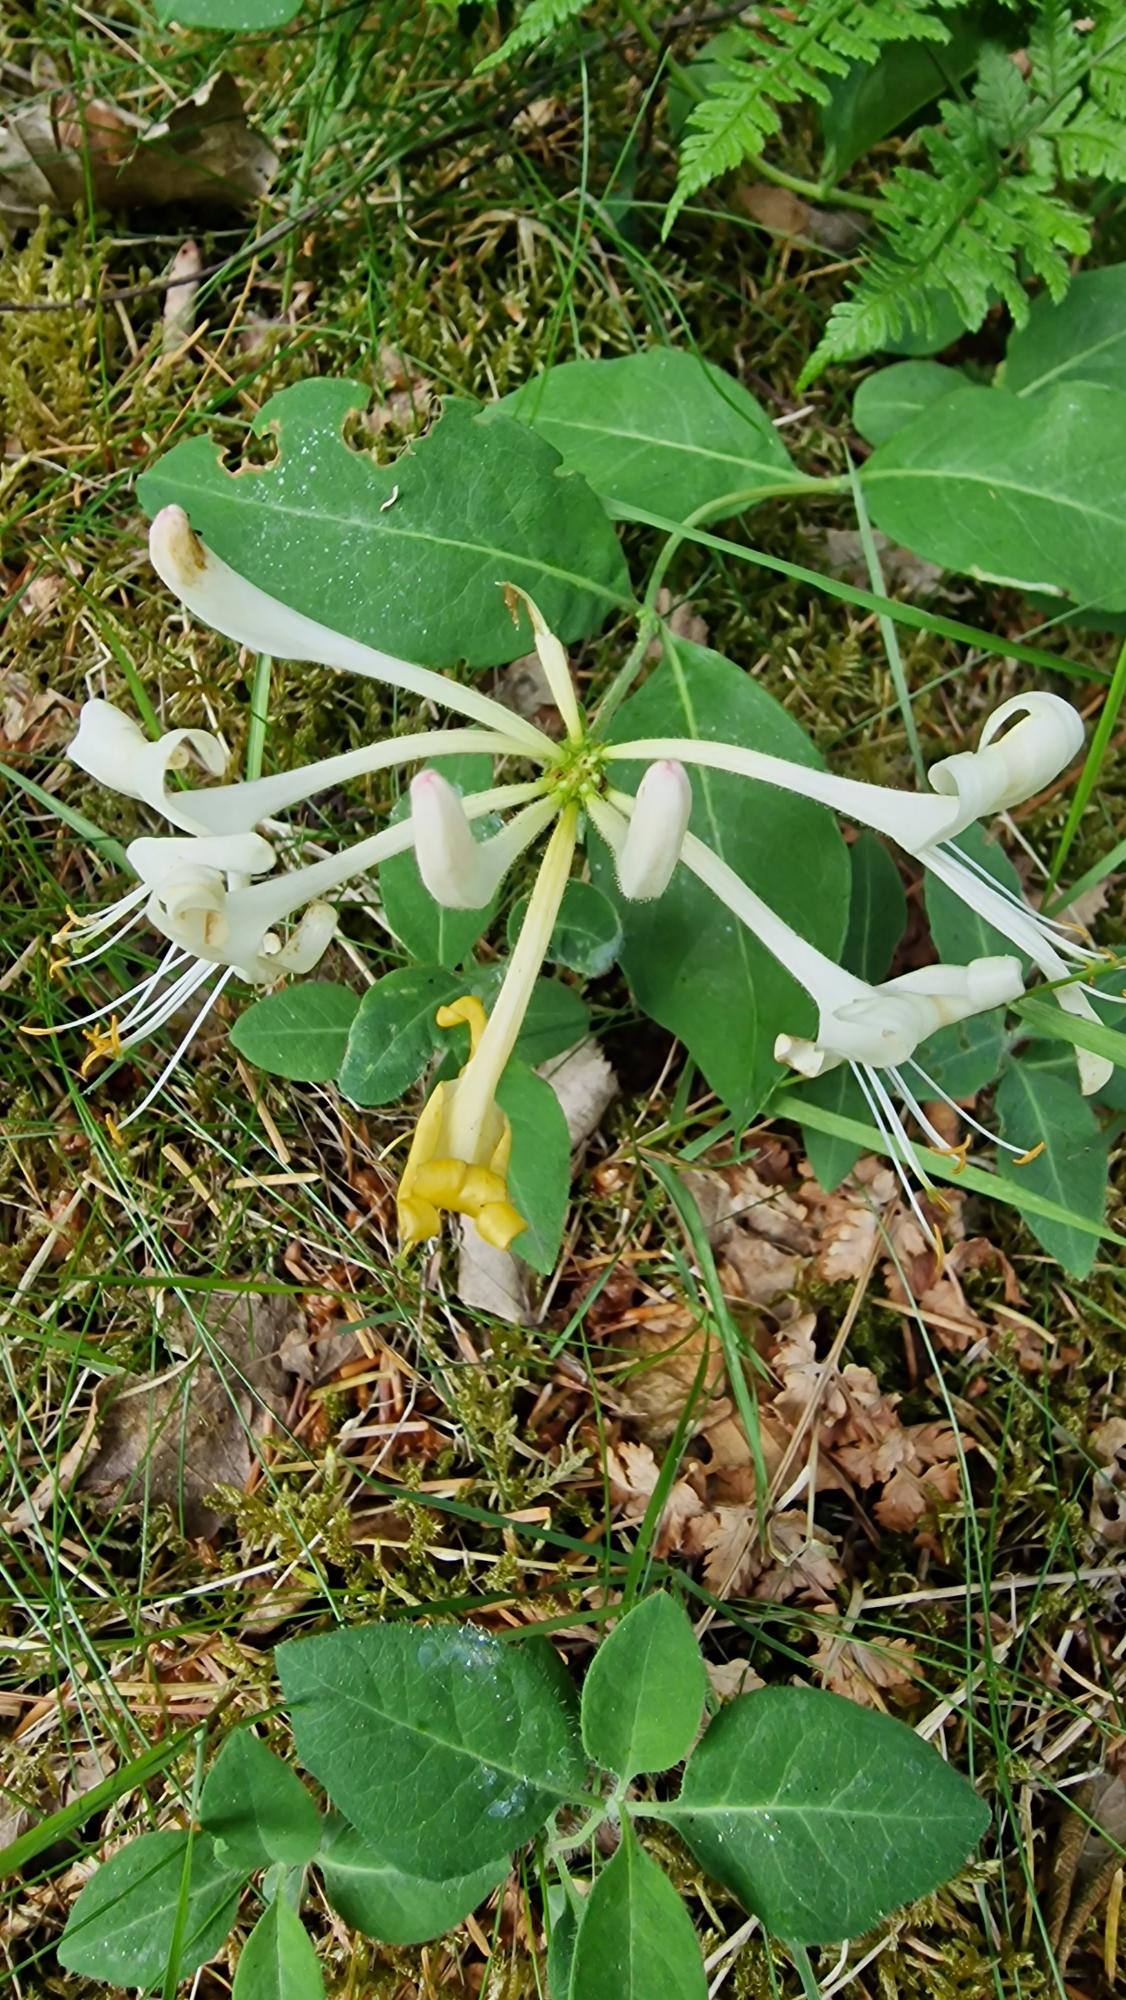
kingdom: Plantae
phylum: Tracheophyta
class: Magnoliopsida
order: Dipsacales
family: Caprifoliaceae
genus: Lonicera
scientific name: Lonicera periclymenum
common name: Almindelig gedeblad
